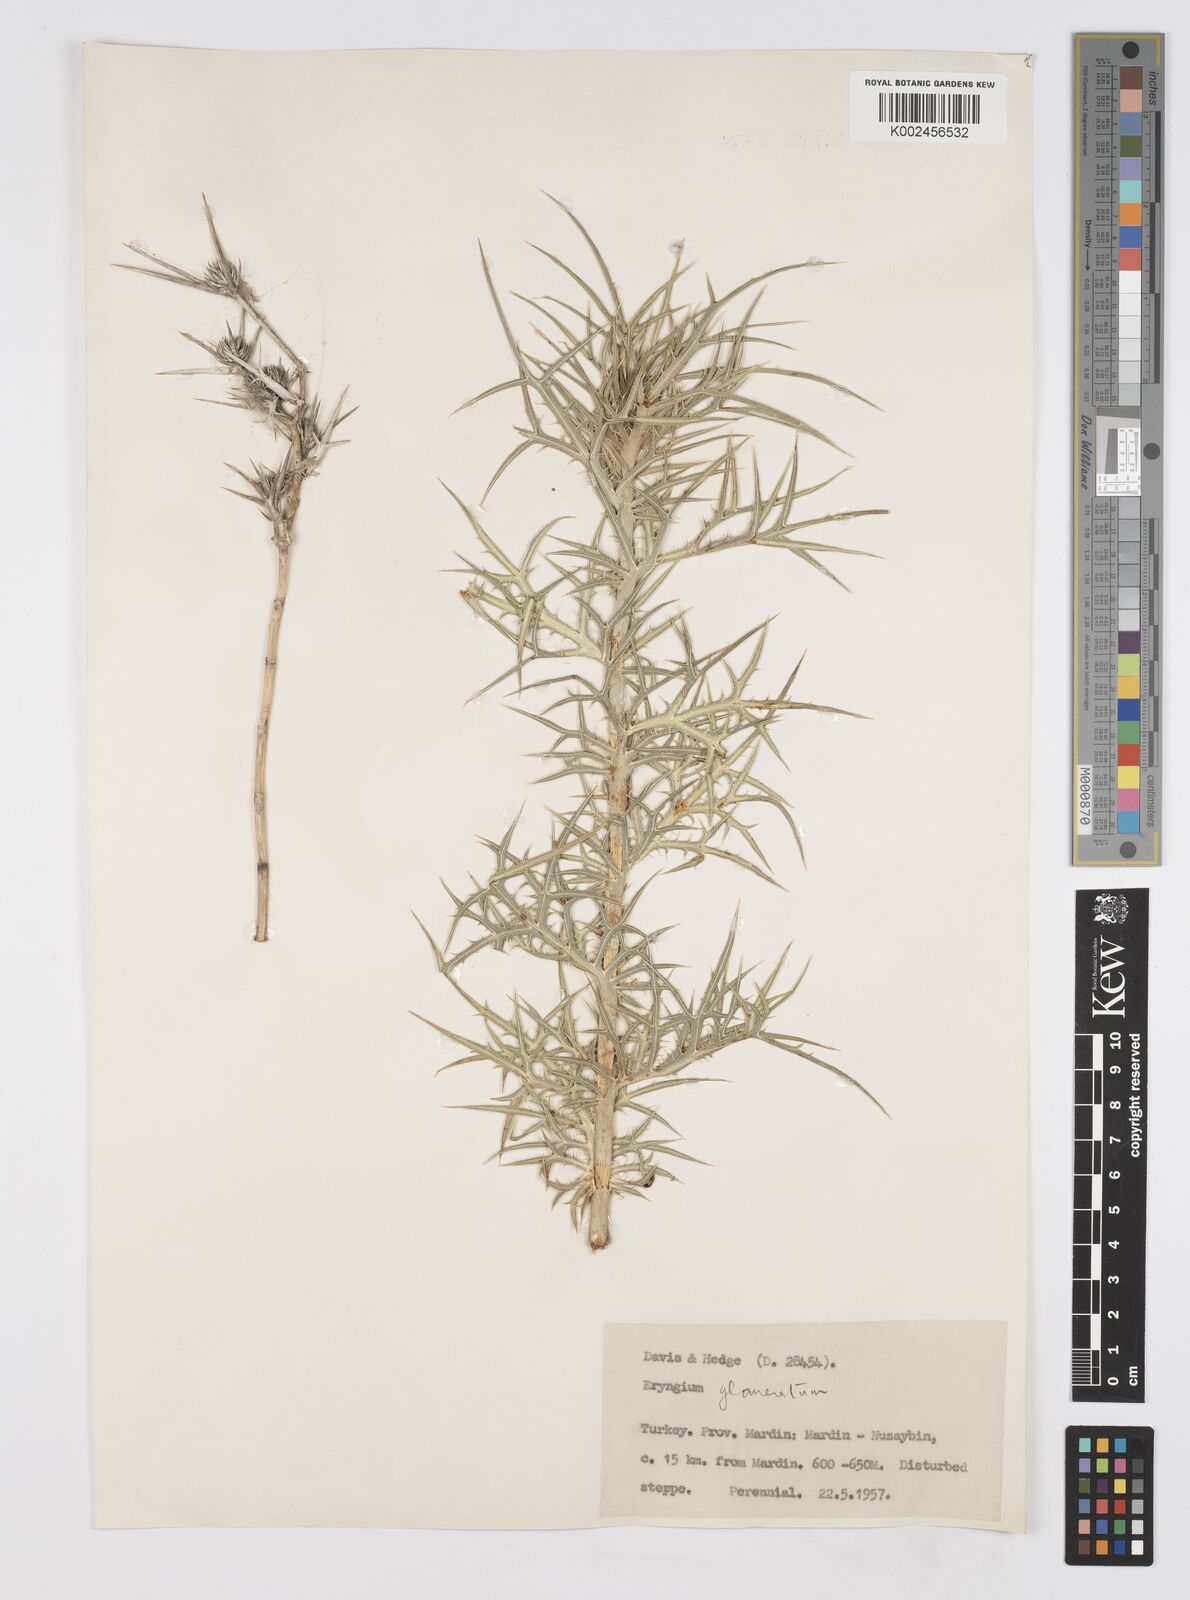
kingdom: Plantae
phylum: Tracheophyta
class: Magnoliopsida
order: Apiales
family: Apiaceae
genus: Eryngium
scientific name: Eryngium glomeratum
